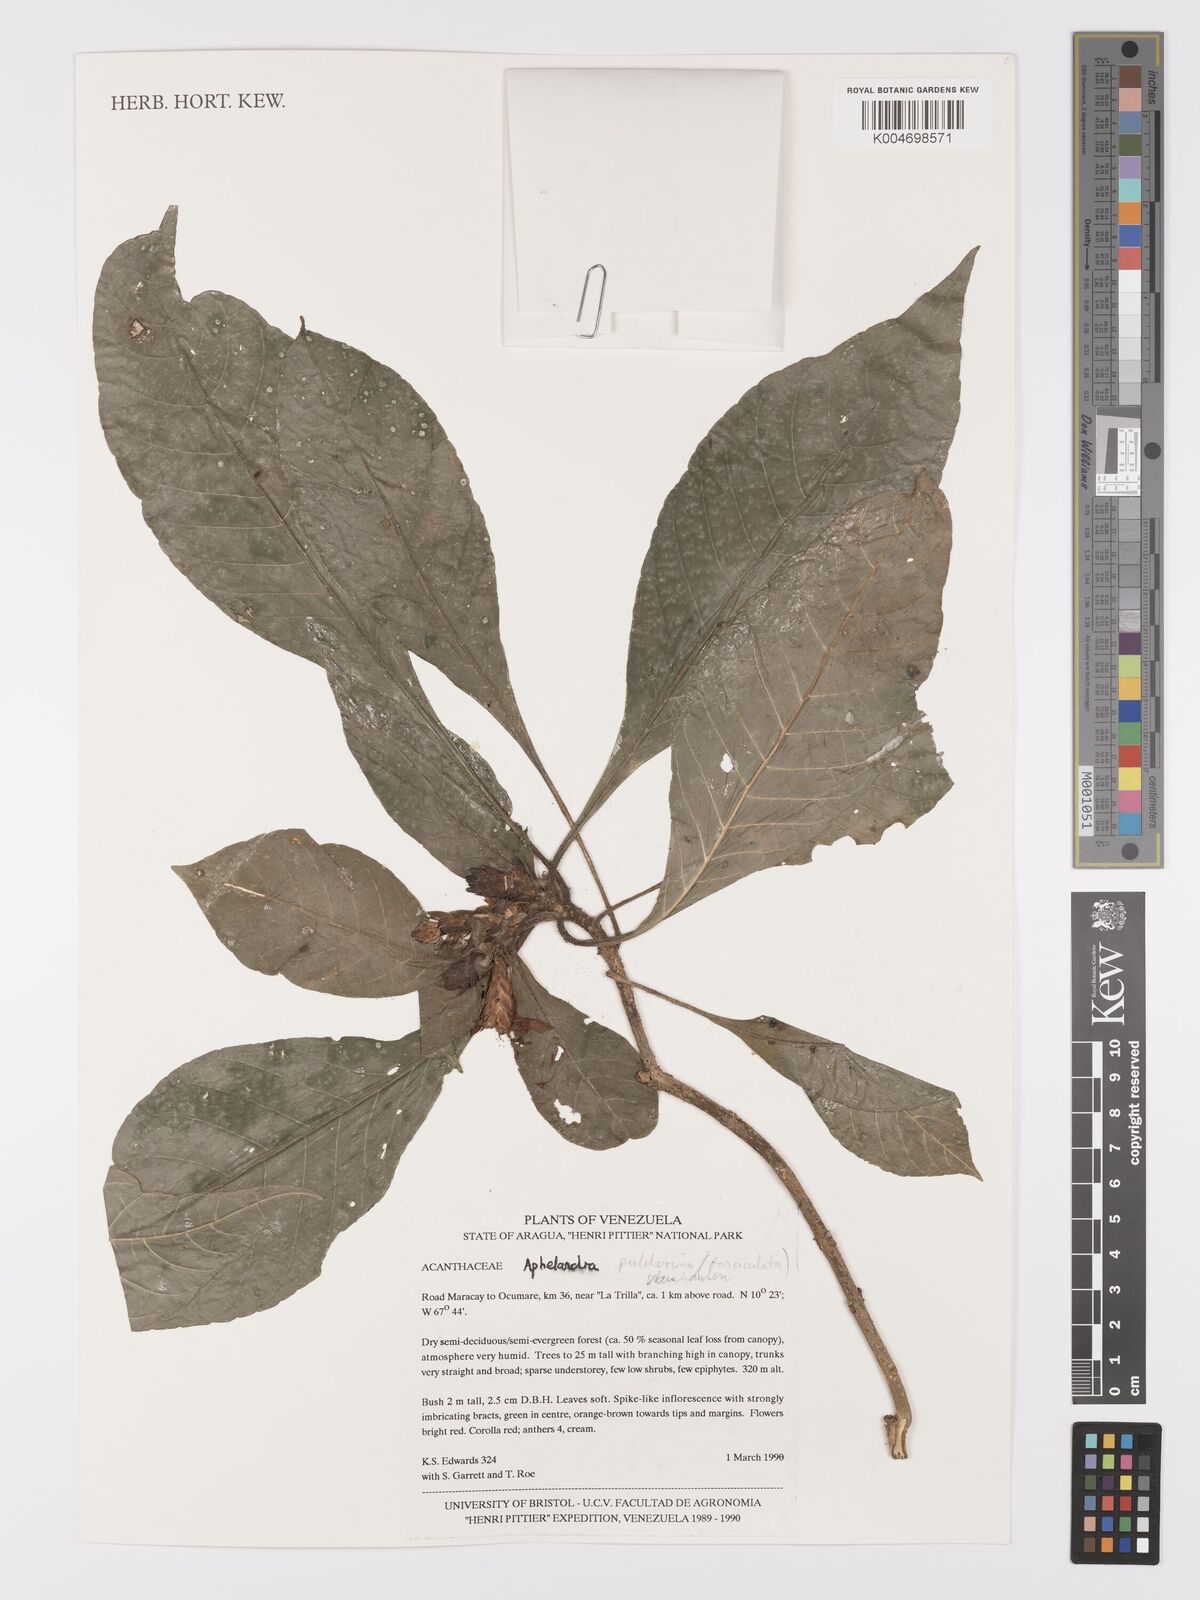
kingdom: Plantae
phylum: Tracheophyta
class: Magnoliopsida
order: Lamiales
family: Acanthaceae
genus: Aphelandra
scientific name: Aphelandra glabrata
